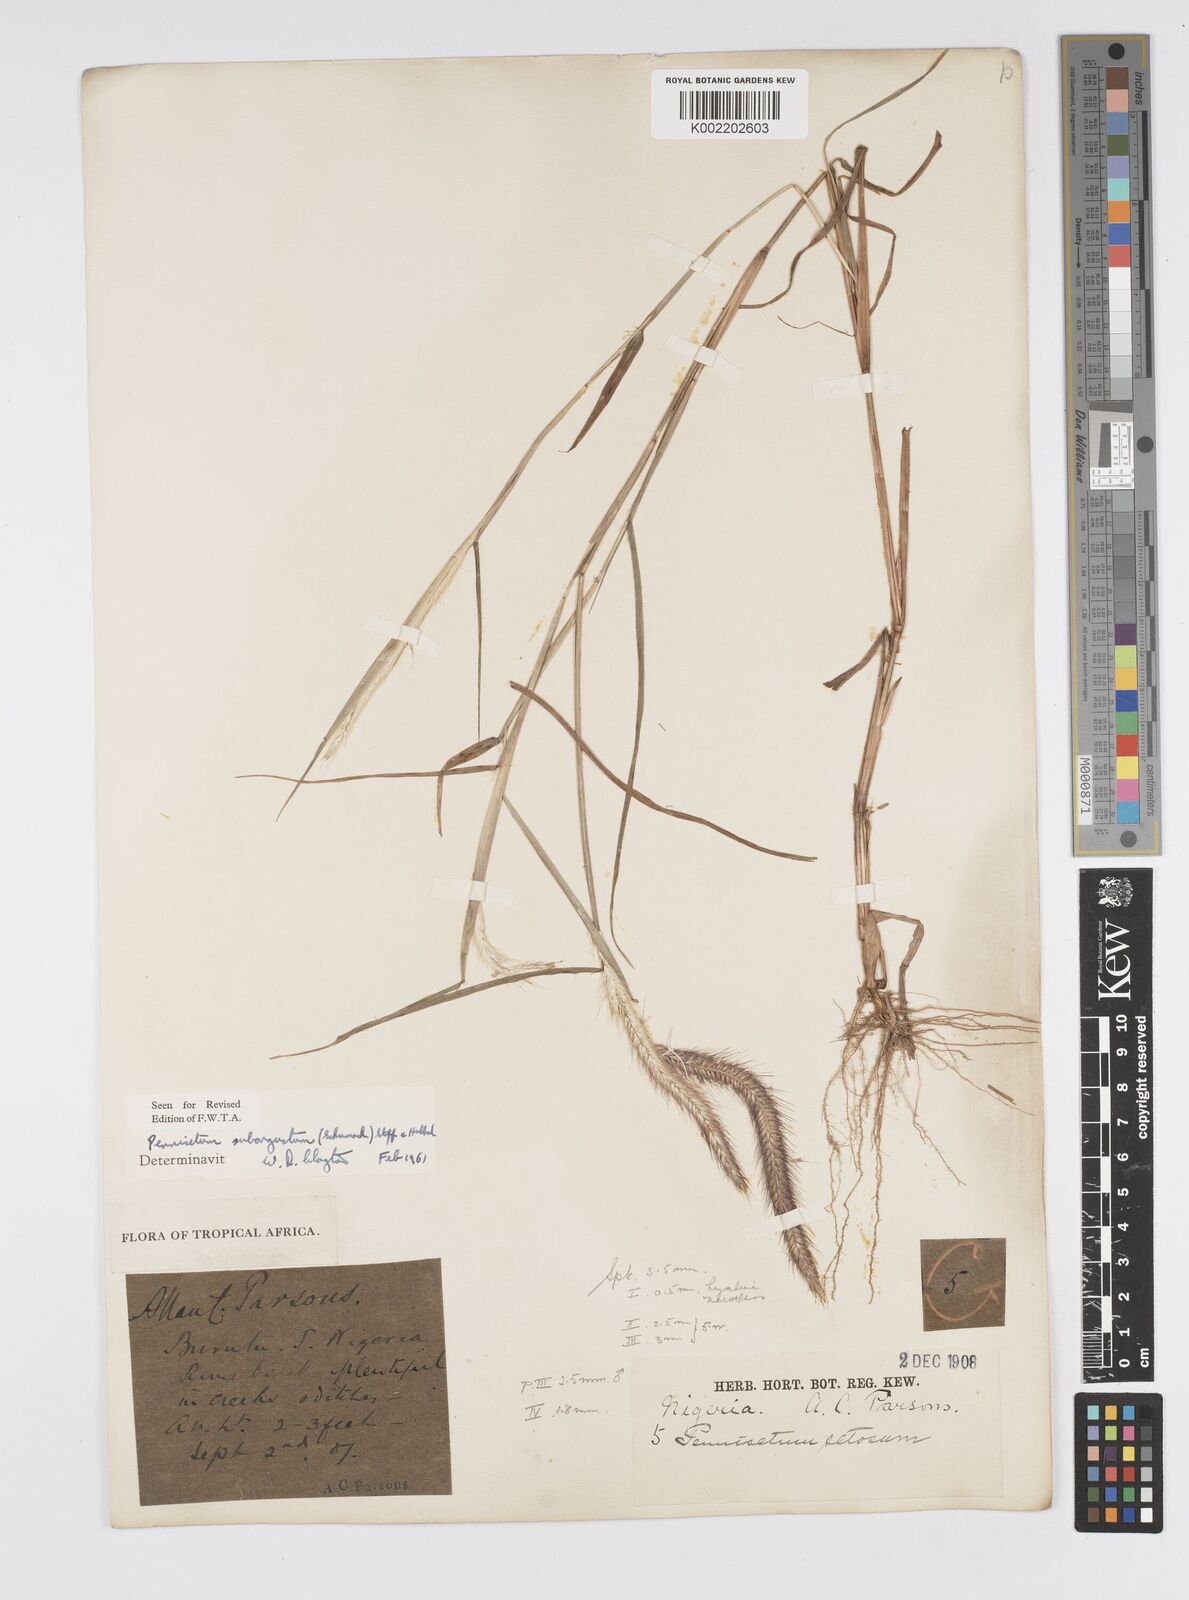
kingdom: Plantae
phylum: Tracheophyta
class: Liliopsida
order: Poales
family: Poaceae
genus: Setaria
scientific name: Setaria parviflora
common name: Knotroot bristle-grass
